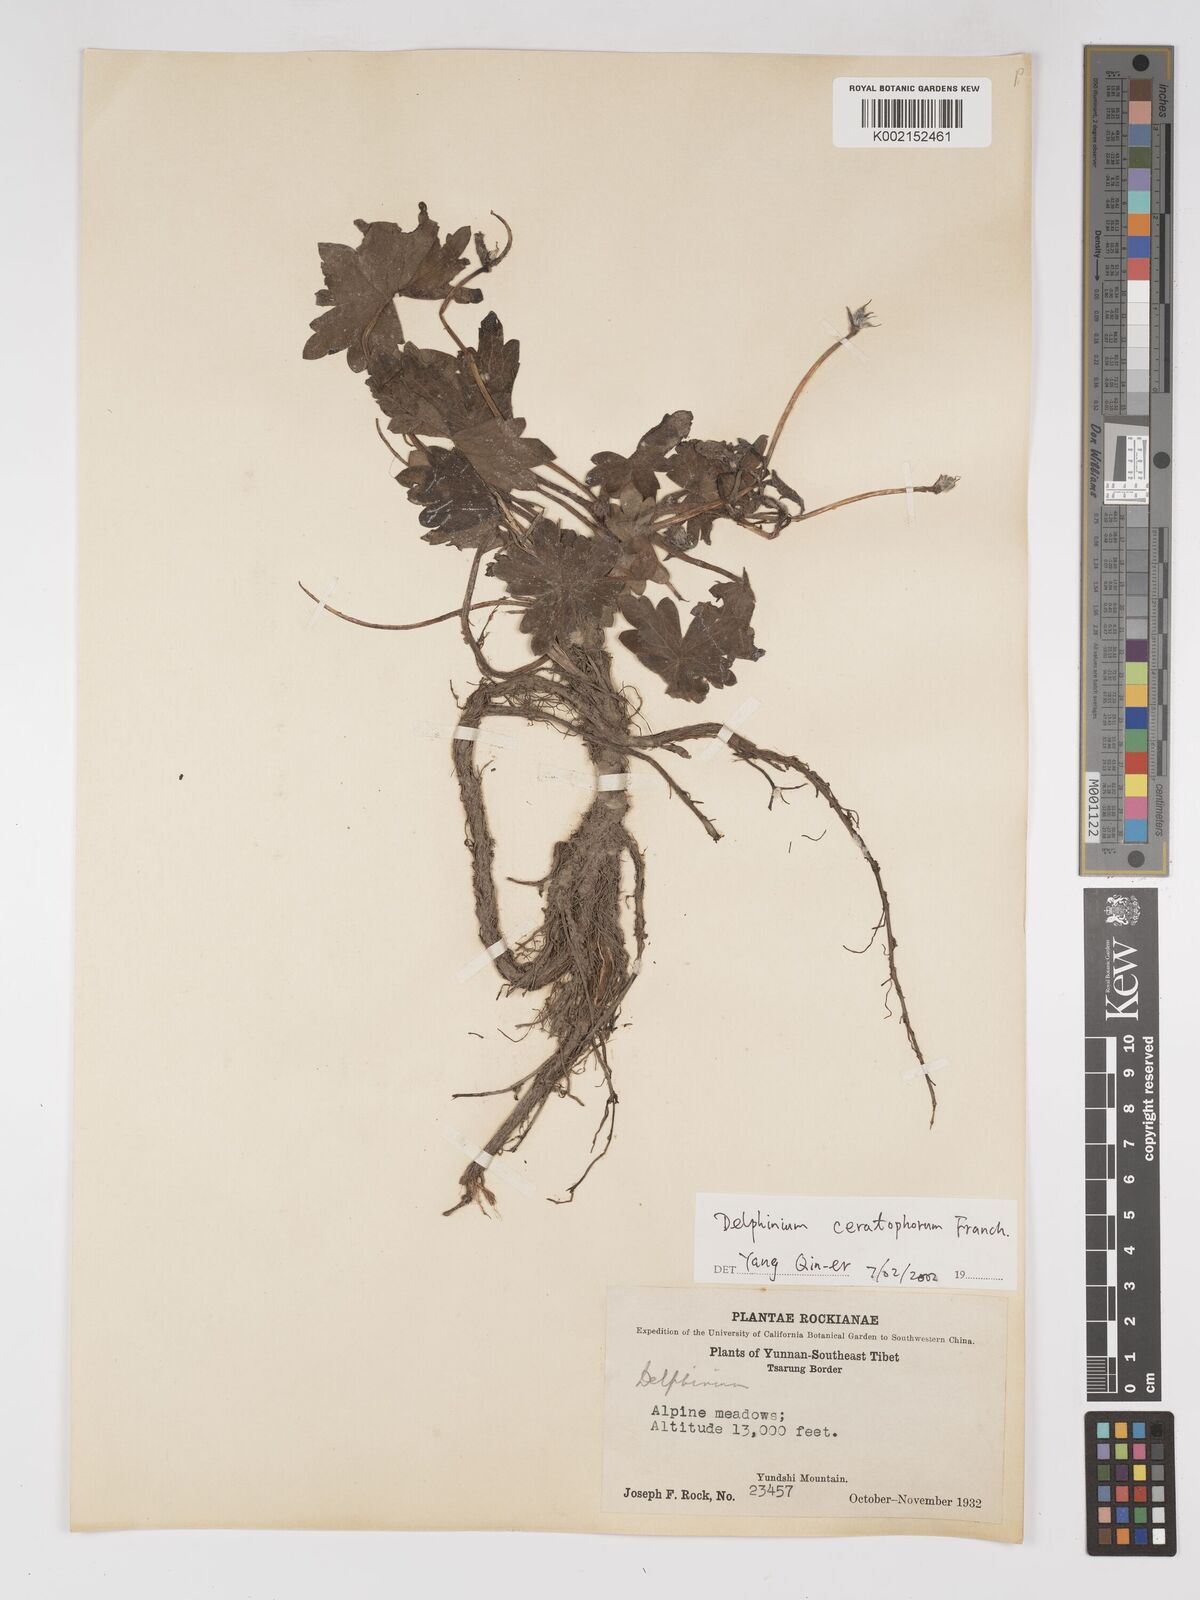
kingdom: Plantae
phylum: Tracheophyta
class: Magnoliopsida
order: Ranunculales
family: Ranunculaceae
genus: Delphinium
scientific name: Delphinium ceratophorum
